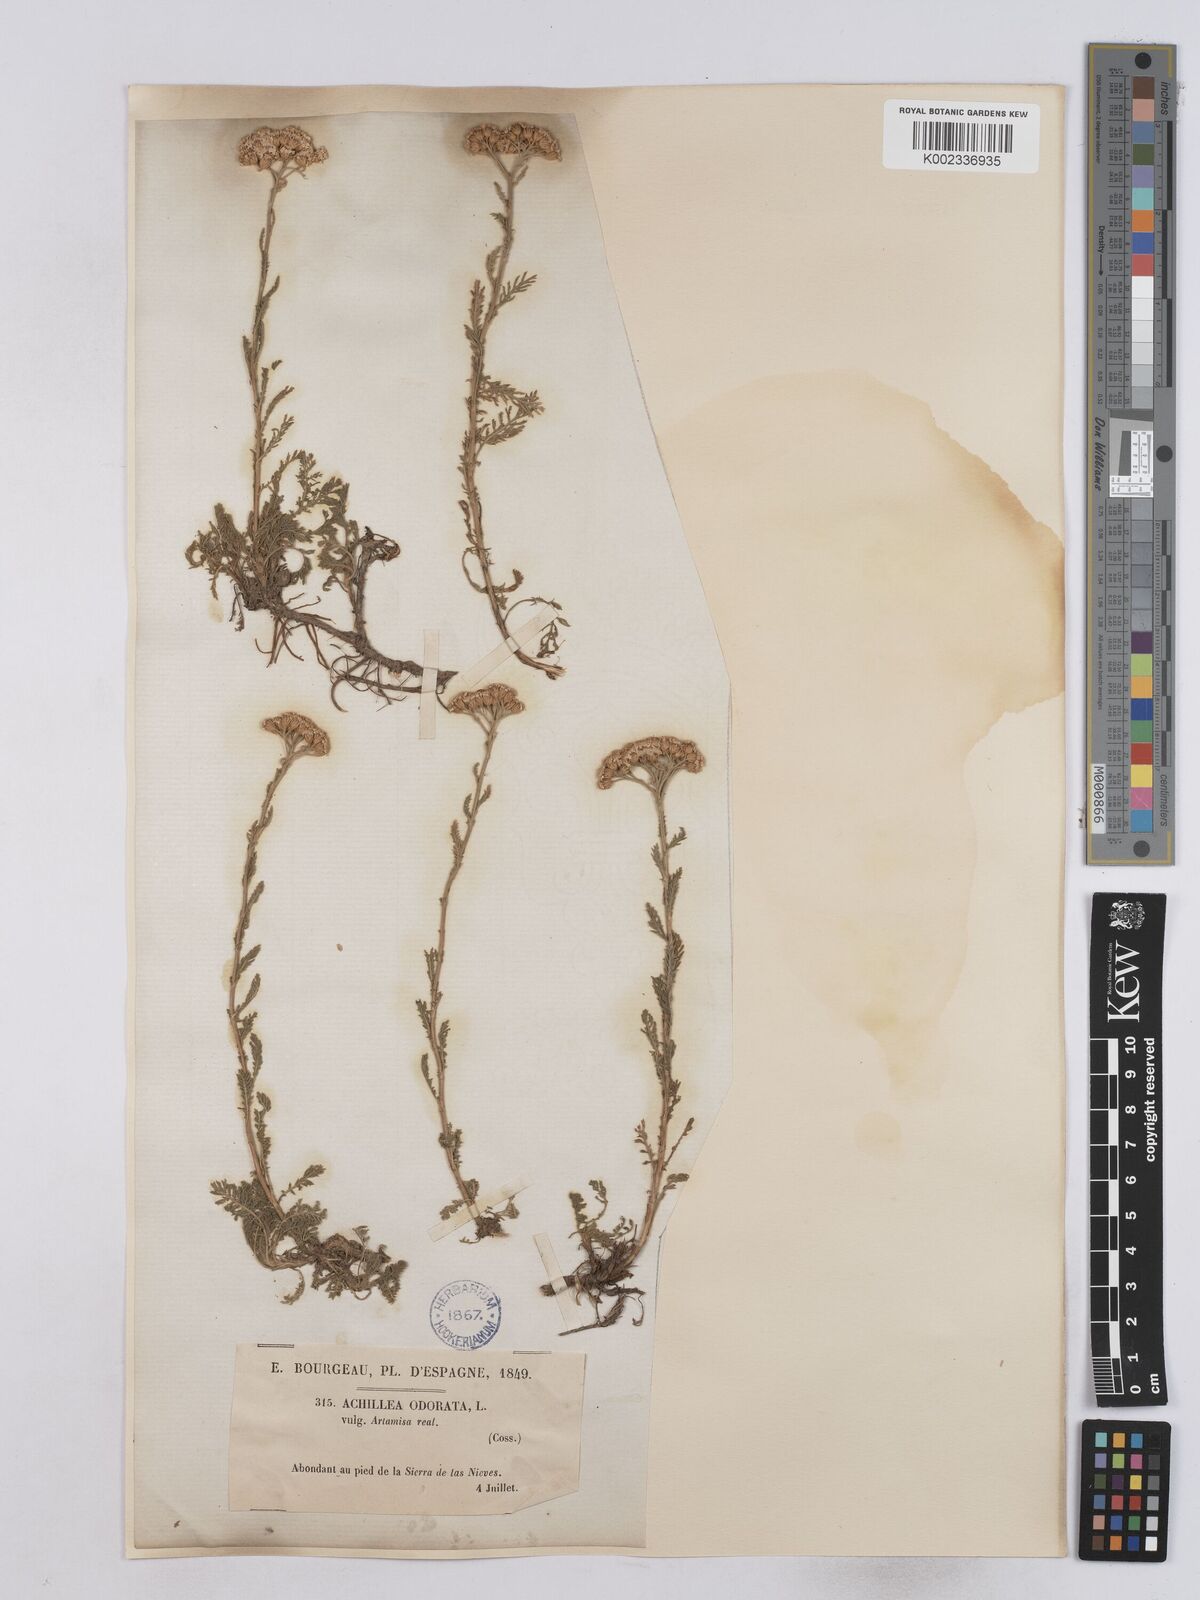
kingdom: Plantae
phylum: Tracheophyta
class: Magnoliopsida
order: Asterales
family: Asteraceae
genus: Achillea
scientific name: Achillea odorata
